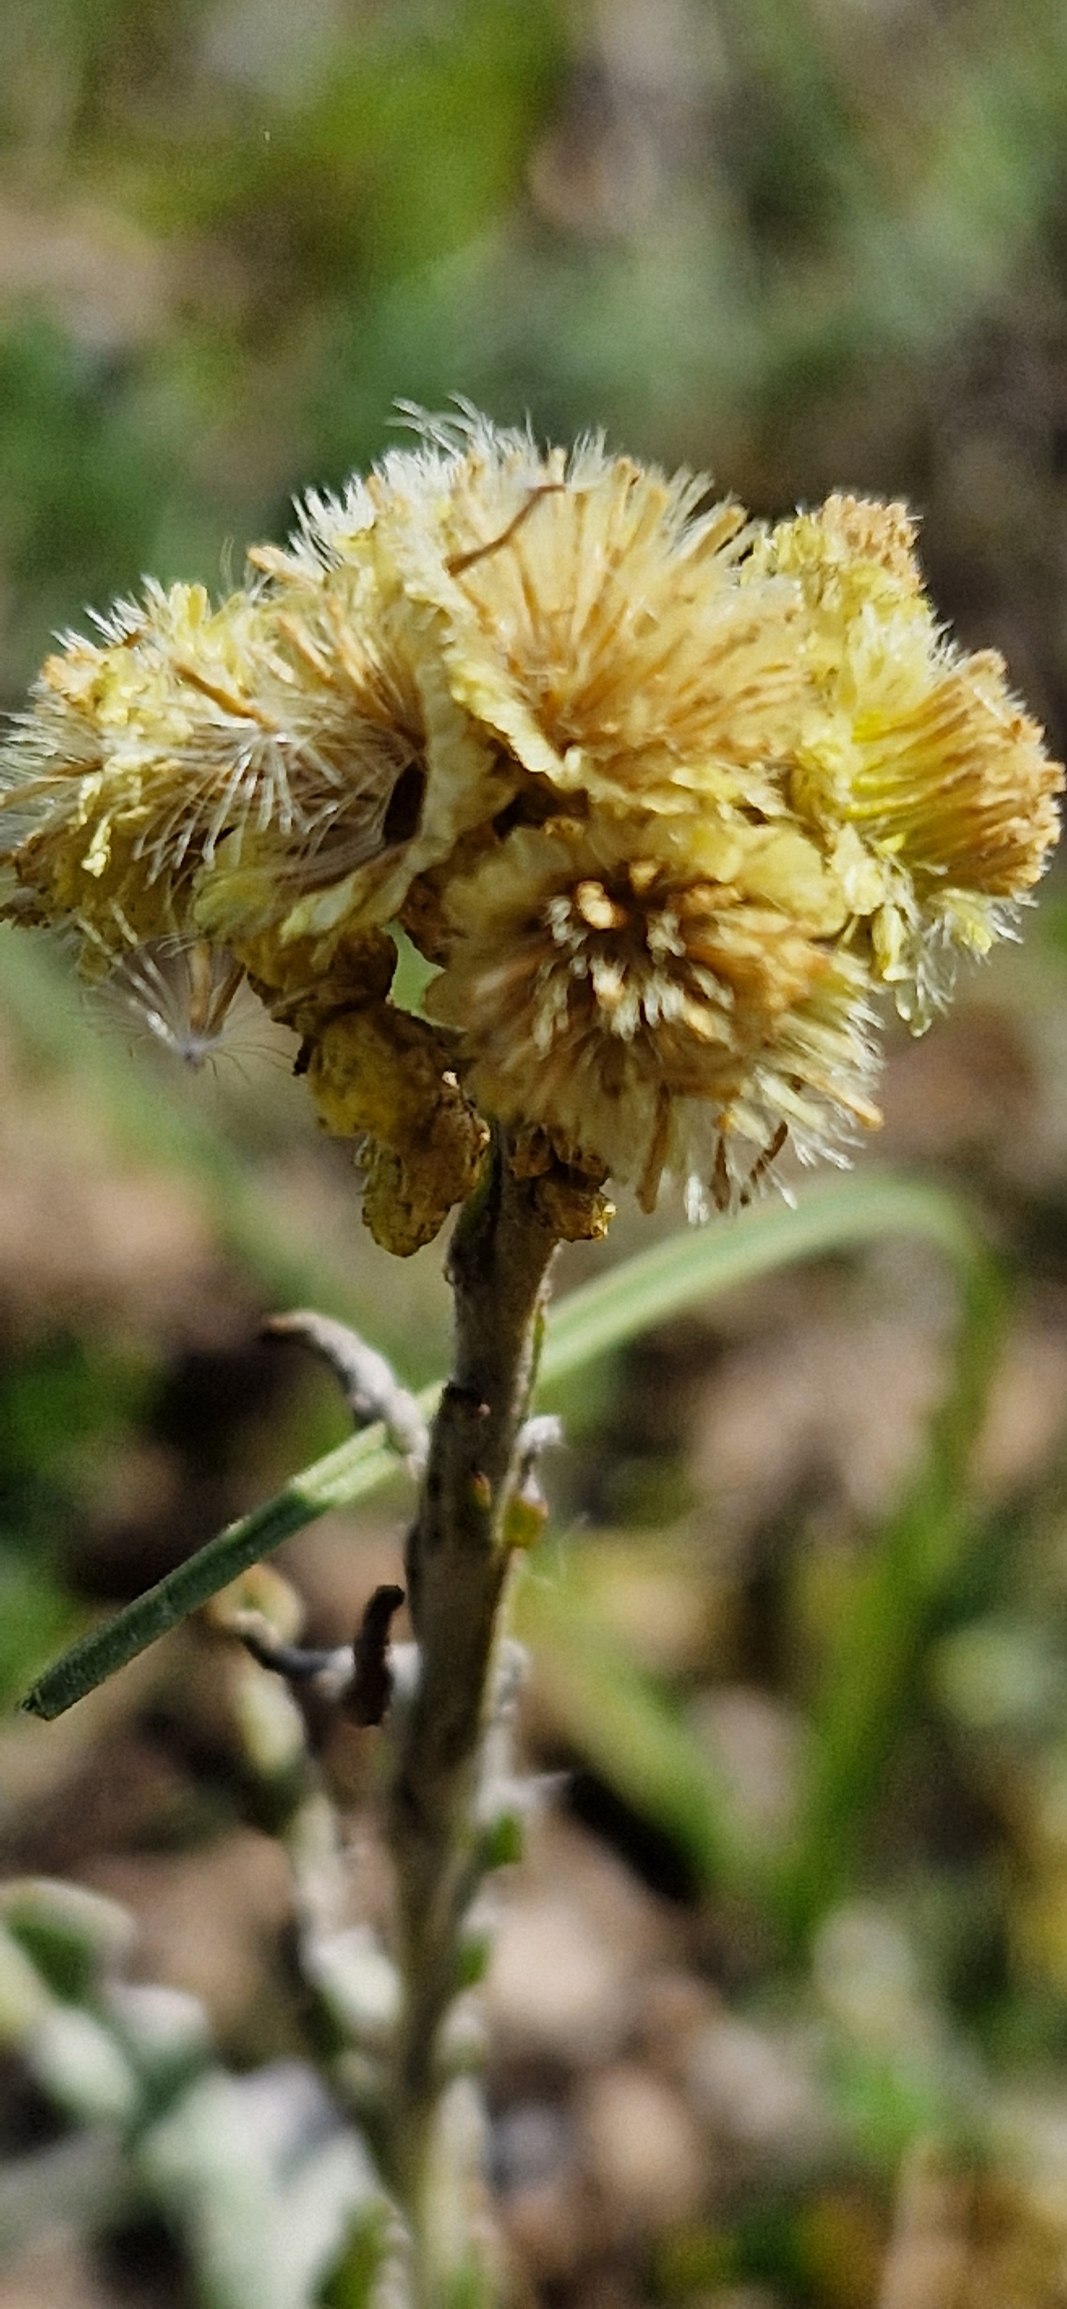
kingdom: Plantae
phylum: Tracheophyta
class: Magnoliopsida
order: Asterales
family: Asteraceae
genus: Helichrysum
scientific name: Helichrysum arenarium
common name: Gul evighedsblomst
